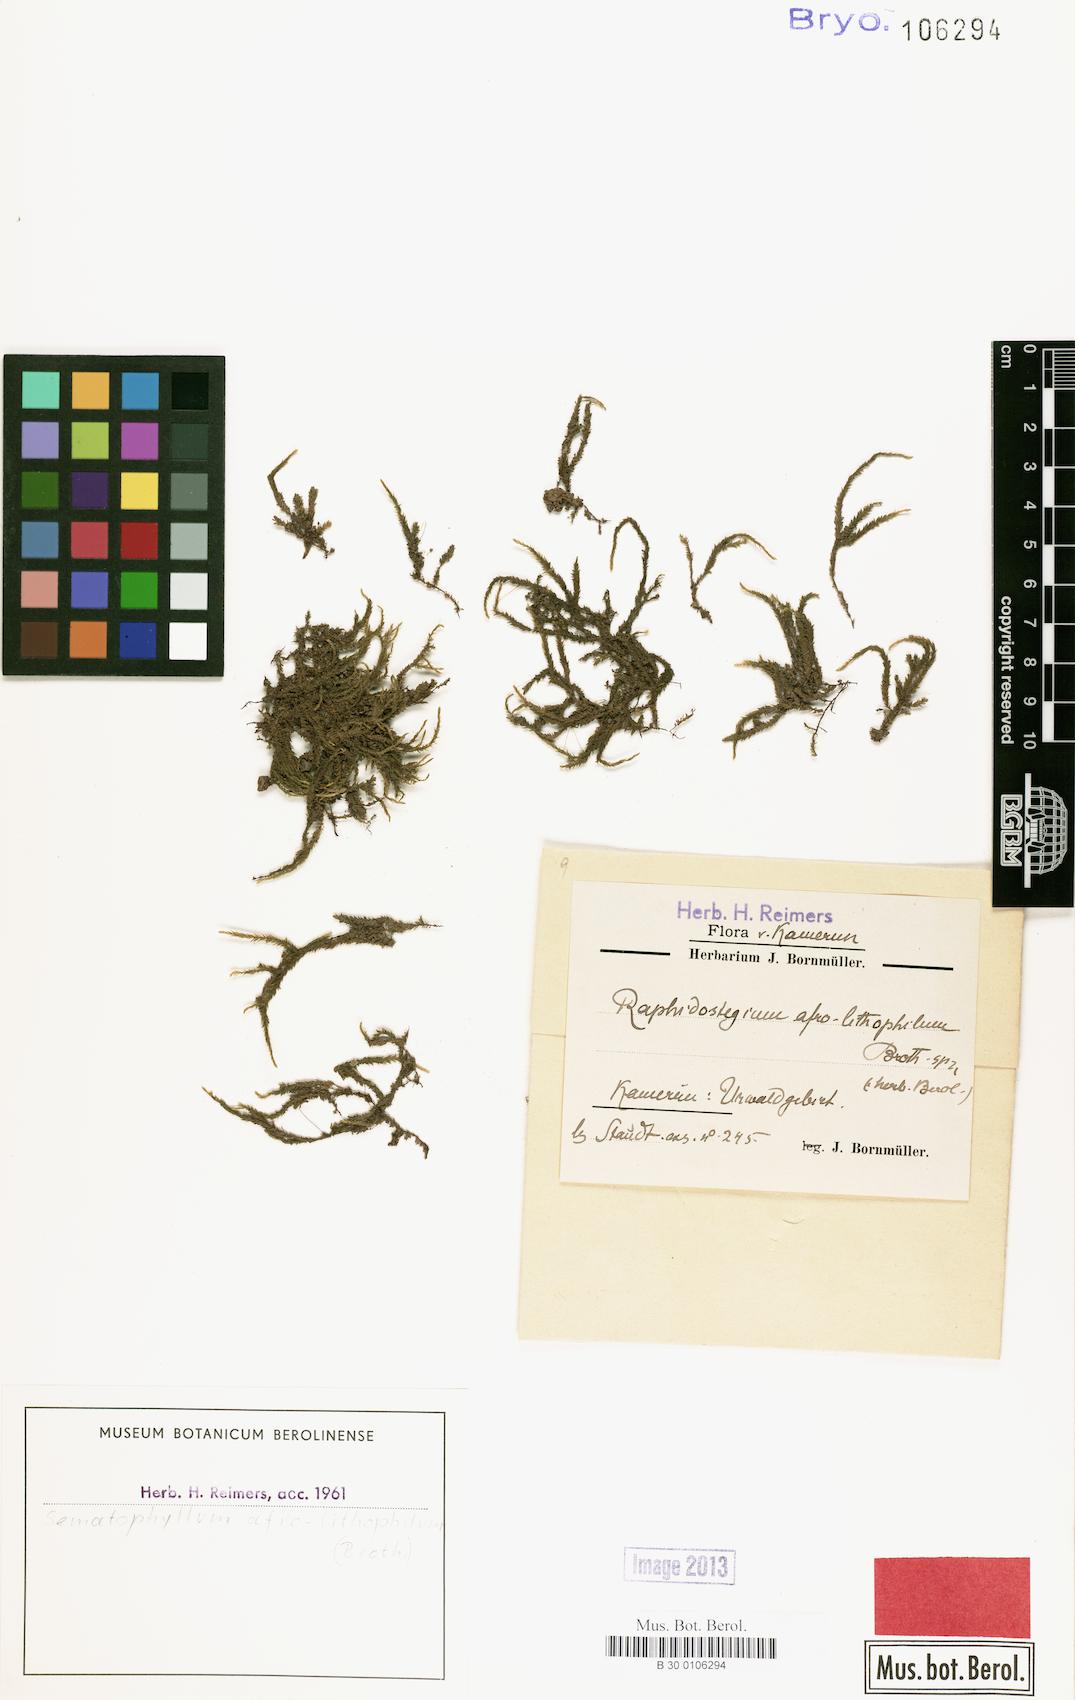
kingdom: Plantae
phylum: Bryophyta
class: Bryopsida
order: Hypnales
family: Sematophyllaceae
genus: Sematophyllum
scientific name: Sematophyllum
